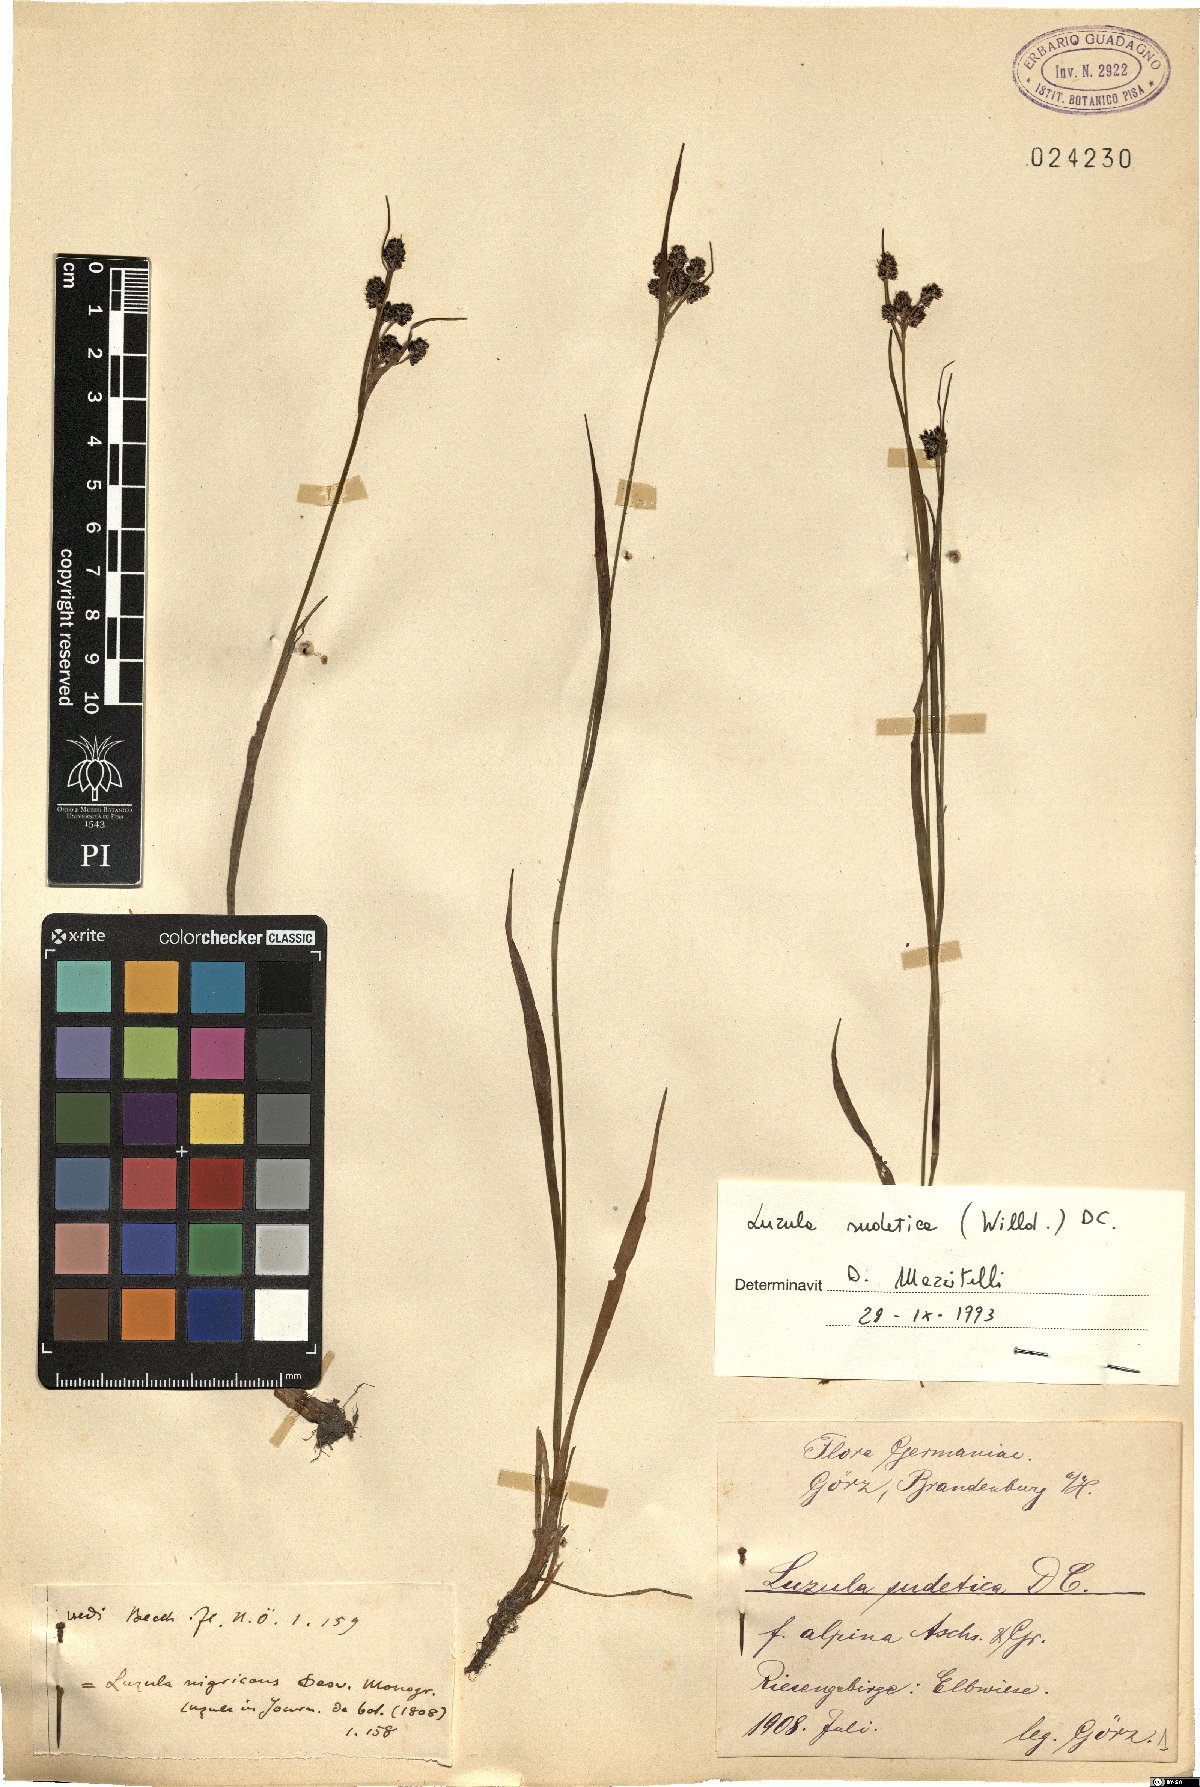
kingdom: Plantae
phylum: Tracheophyta
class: Liliopsida
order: Poales
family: Juncaceae
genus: Luzula
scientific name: Luzula sudetica
